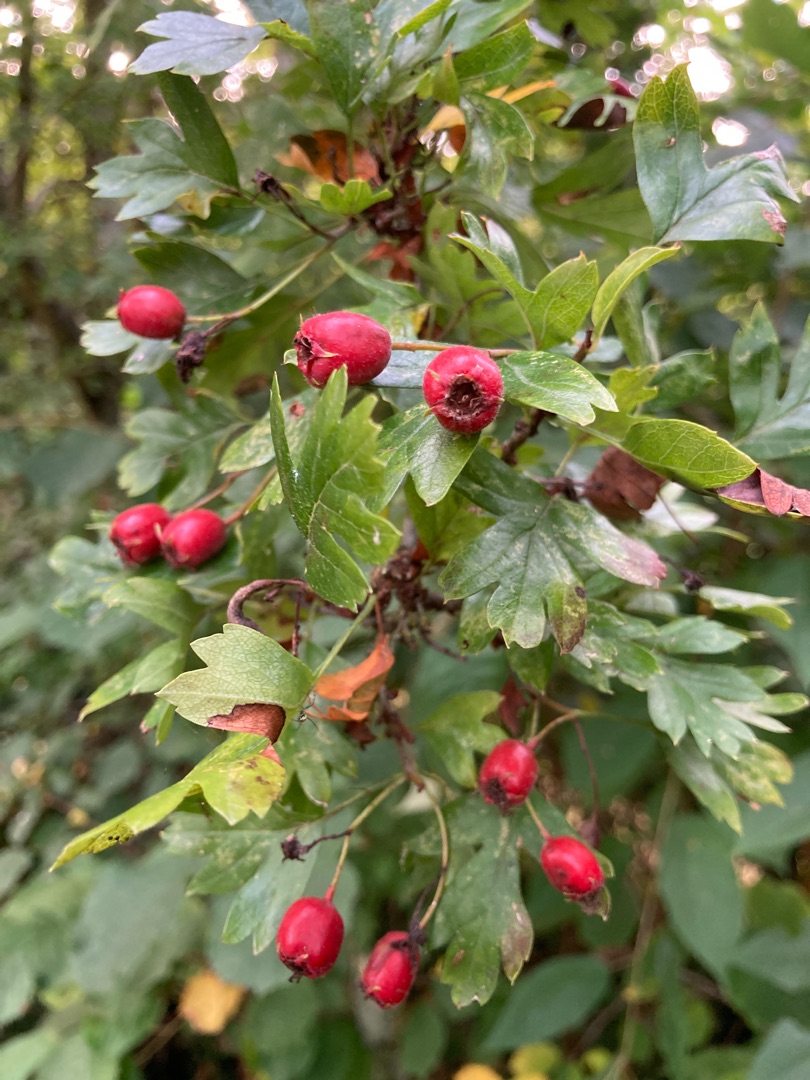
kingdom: Plantae
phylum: Tracheophyta
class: Magnoliopsida
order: Rosales
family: Rosaceae
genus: Crataegus
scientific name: Crataegus monogyna
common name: Engriflet hvidtjørn
